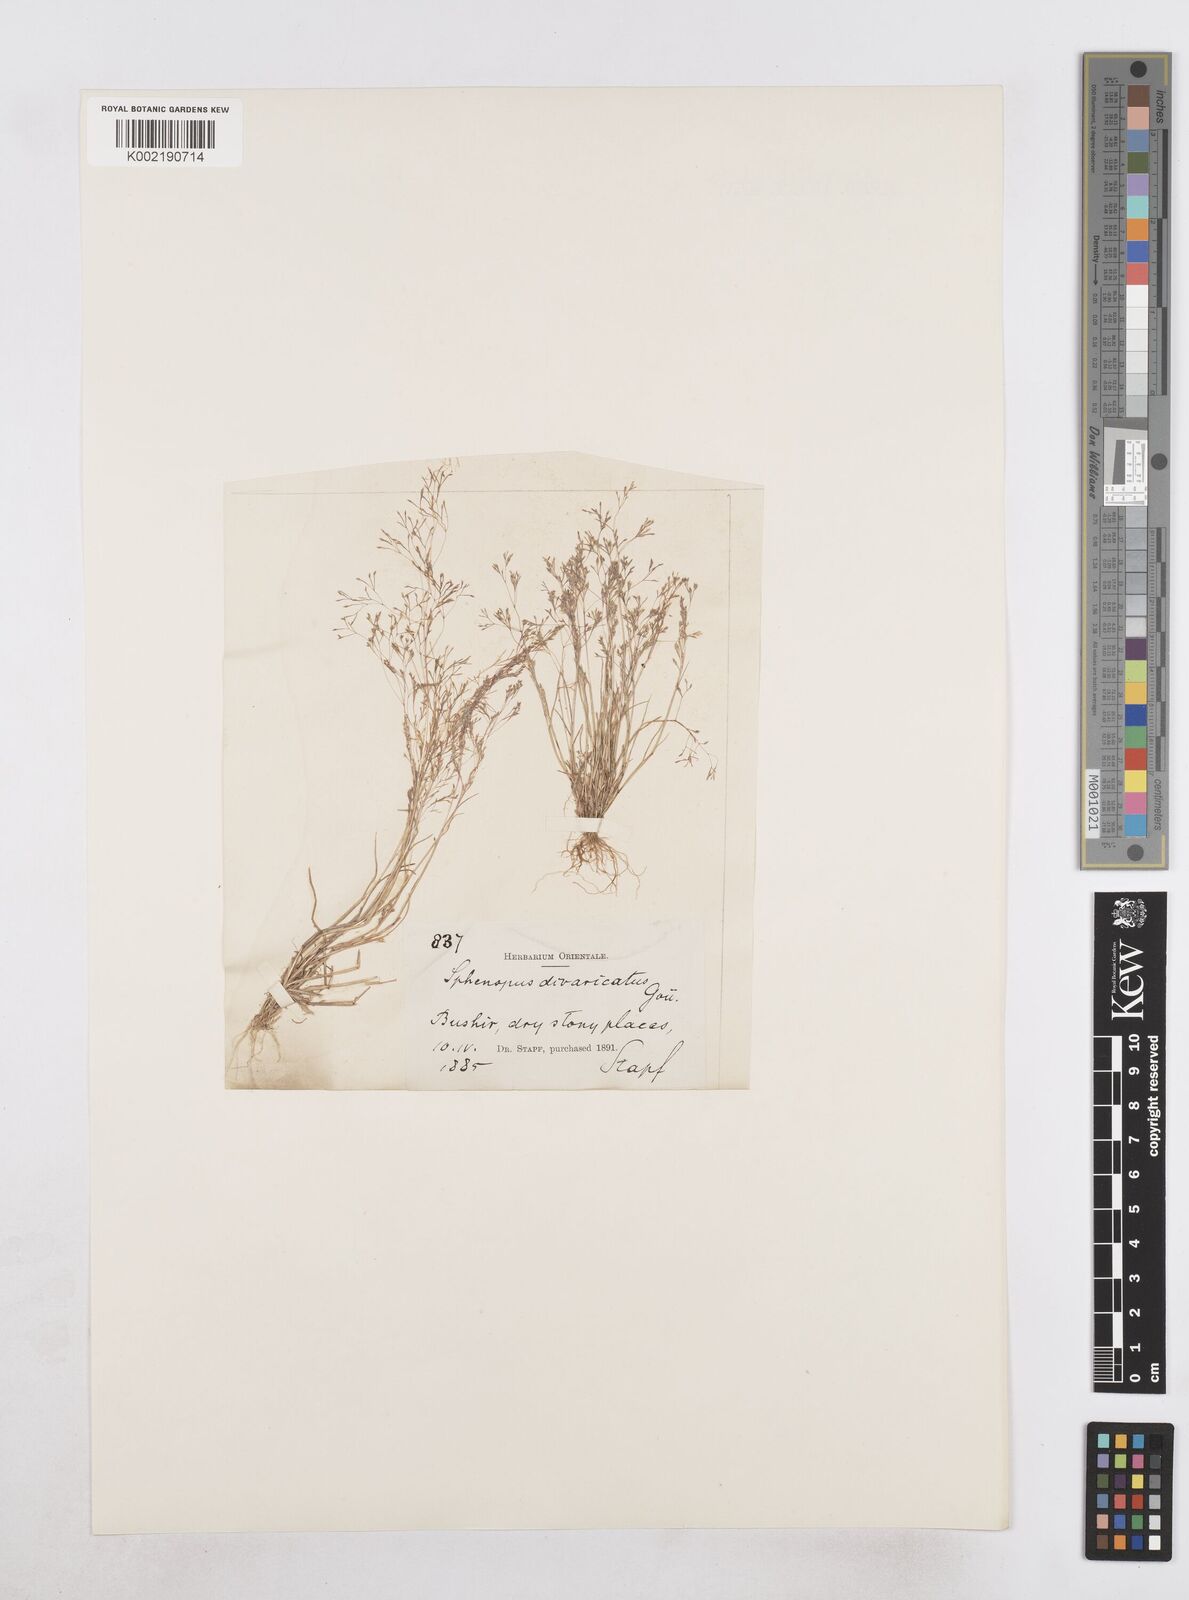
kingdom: Plantae
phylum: Tracheophyta
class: Liliopsida
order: Poales
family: Poaceae
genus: Sphenopus
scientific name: Sphenopus divaricatus
